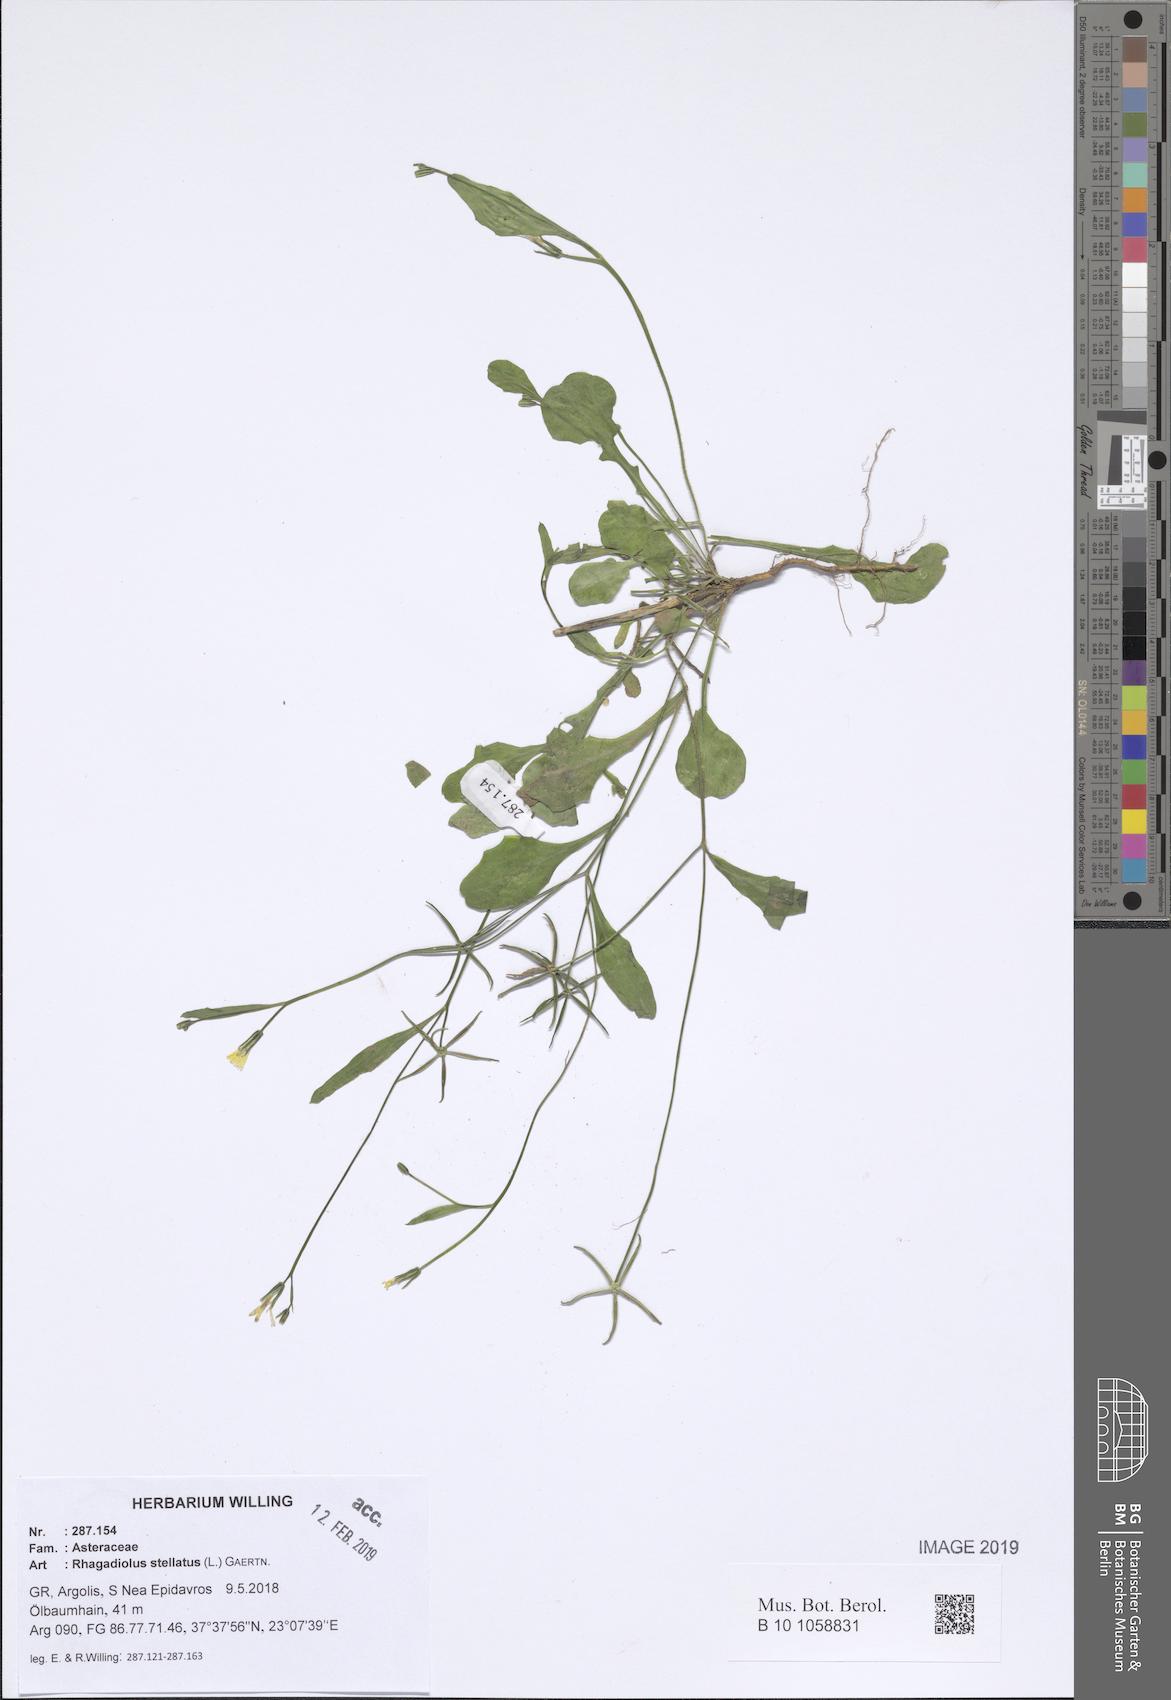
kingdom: Plantae
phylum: Tracheophyta
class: Magnoliopsida
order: Asterales
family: Asteraceae
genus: Rhagadiolus
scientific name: Rhagadiolus stellatus
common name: Star hawkbit
